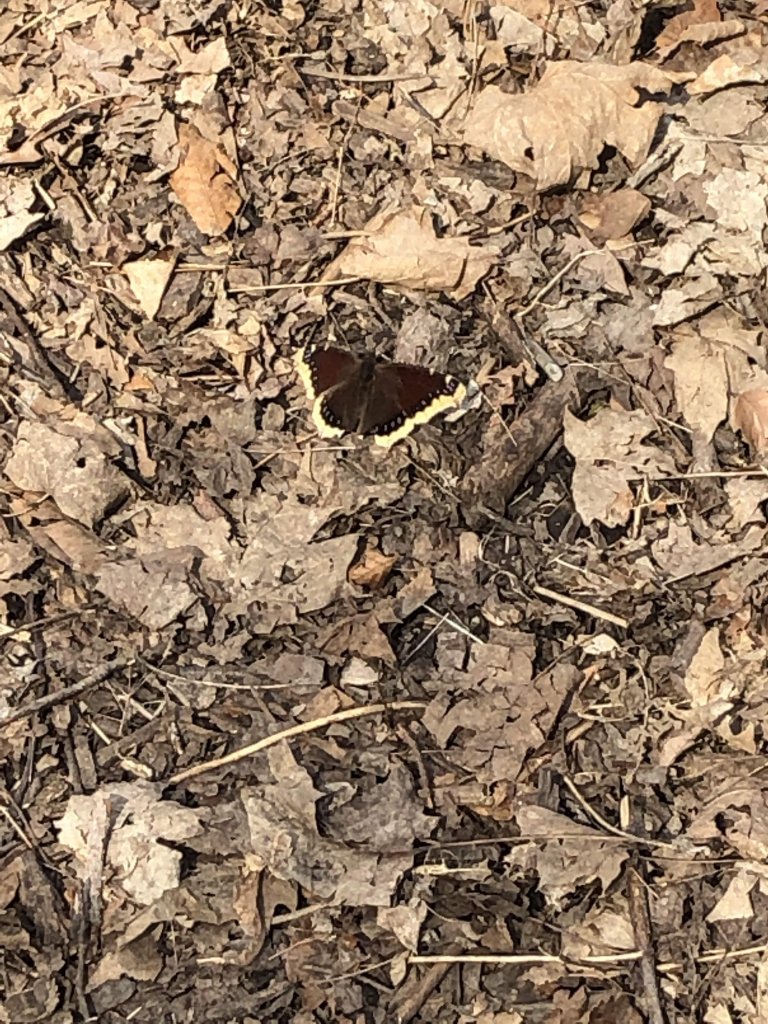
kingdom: Animalia
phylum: Arthropoda
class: Insecta
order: Lepidoptera
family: Nymphalidae
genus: Nymphalis
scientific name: Nymphalis antiopa
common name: Mourning Cloak
